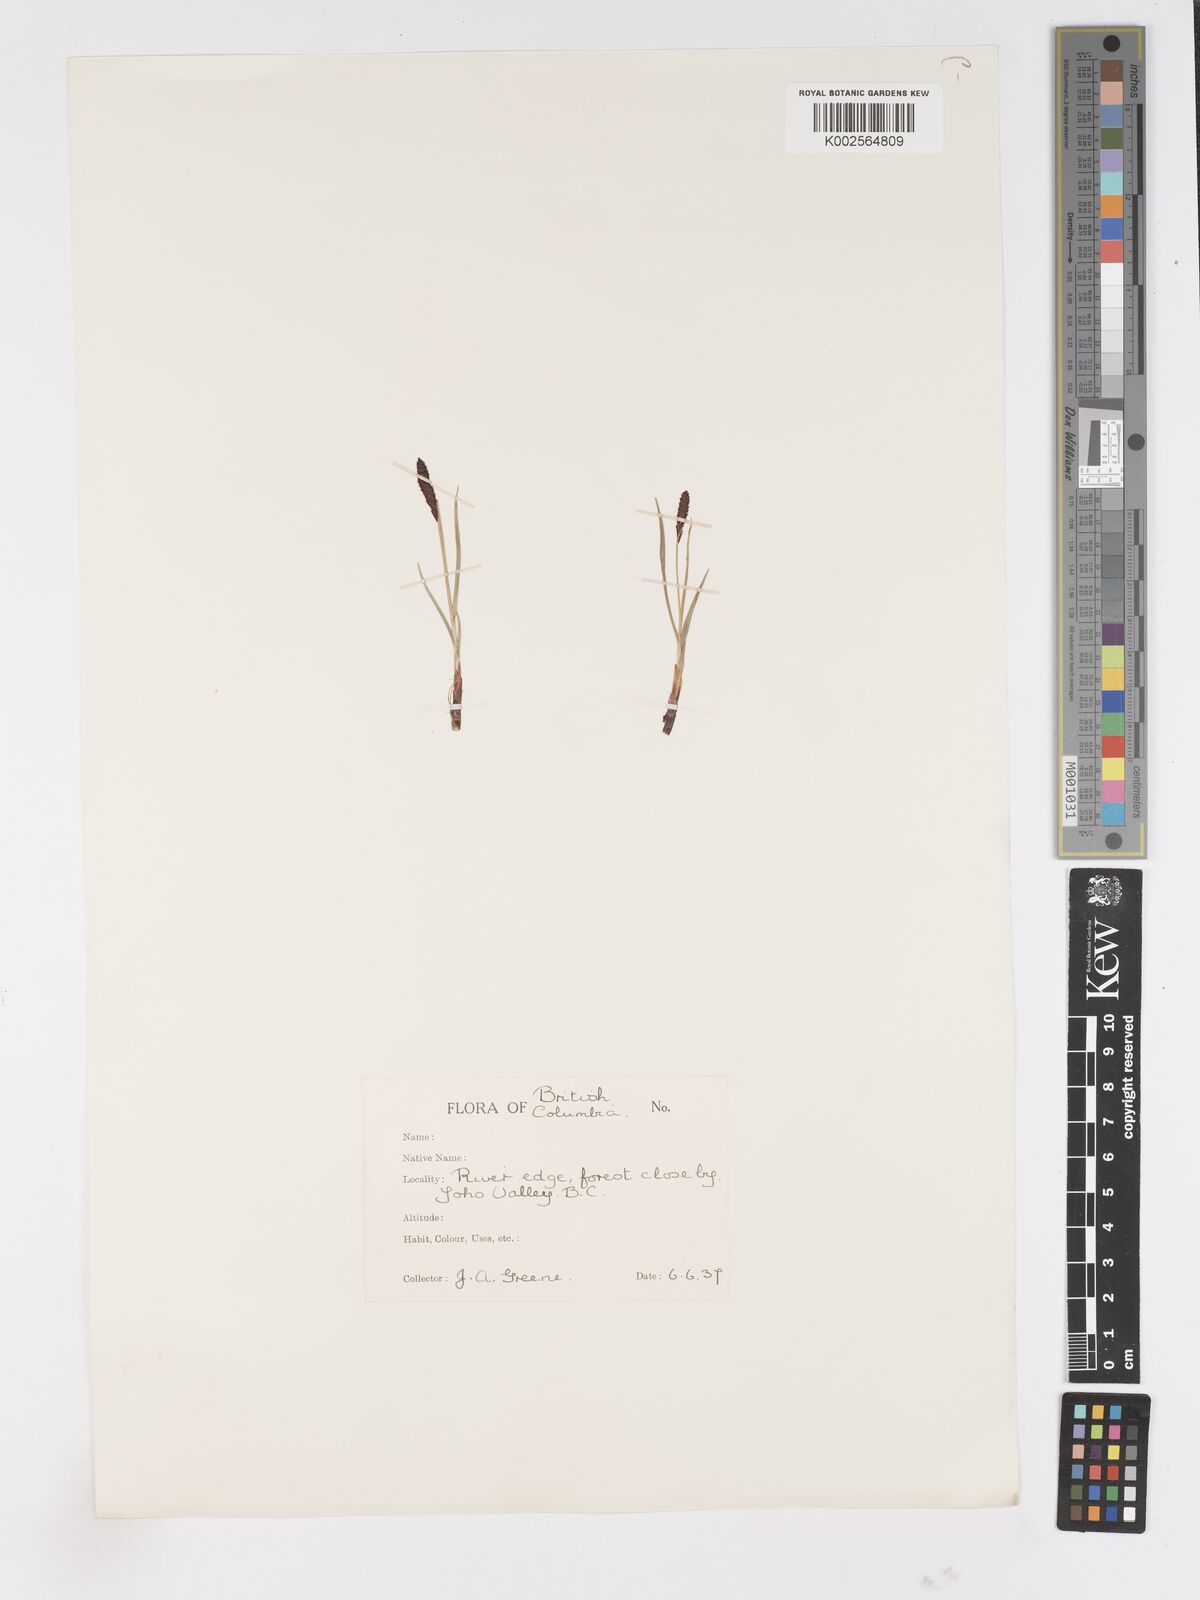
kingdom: Plantae
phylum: Tracheophyta
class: Liliopsida
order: Poales
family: Cyperaceae
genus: Carex
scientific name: Carex
